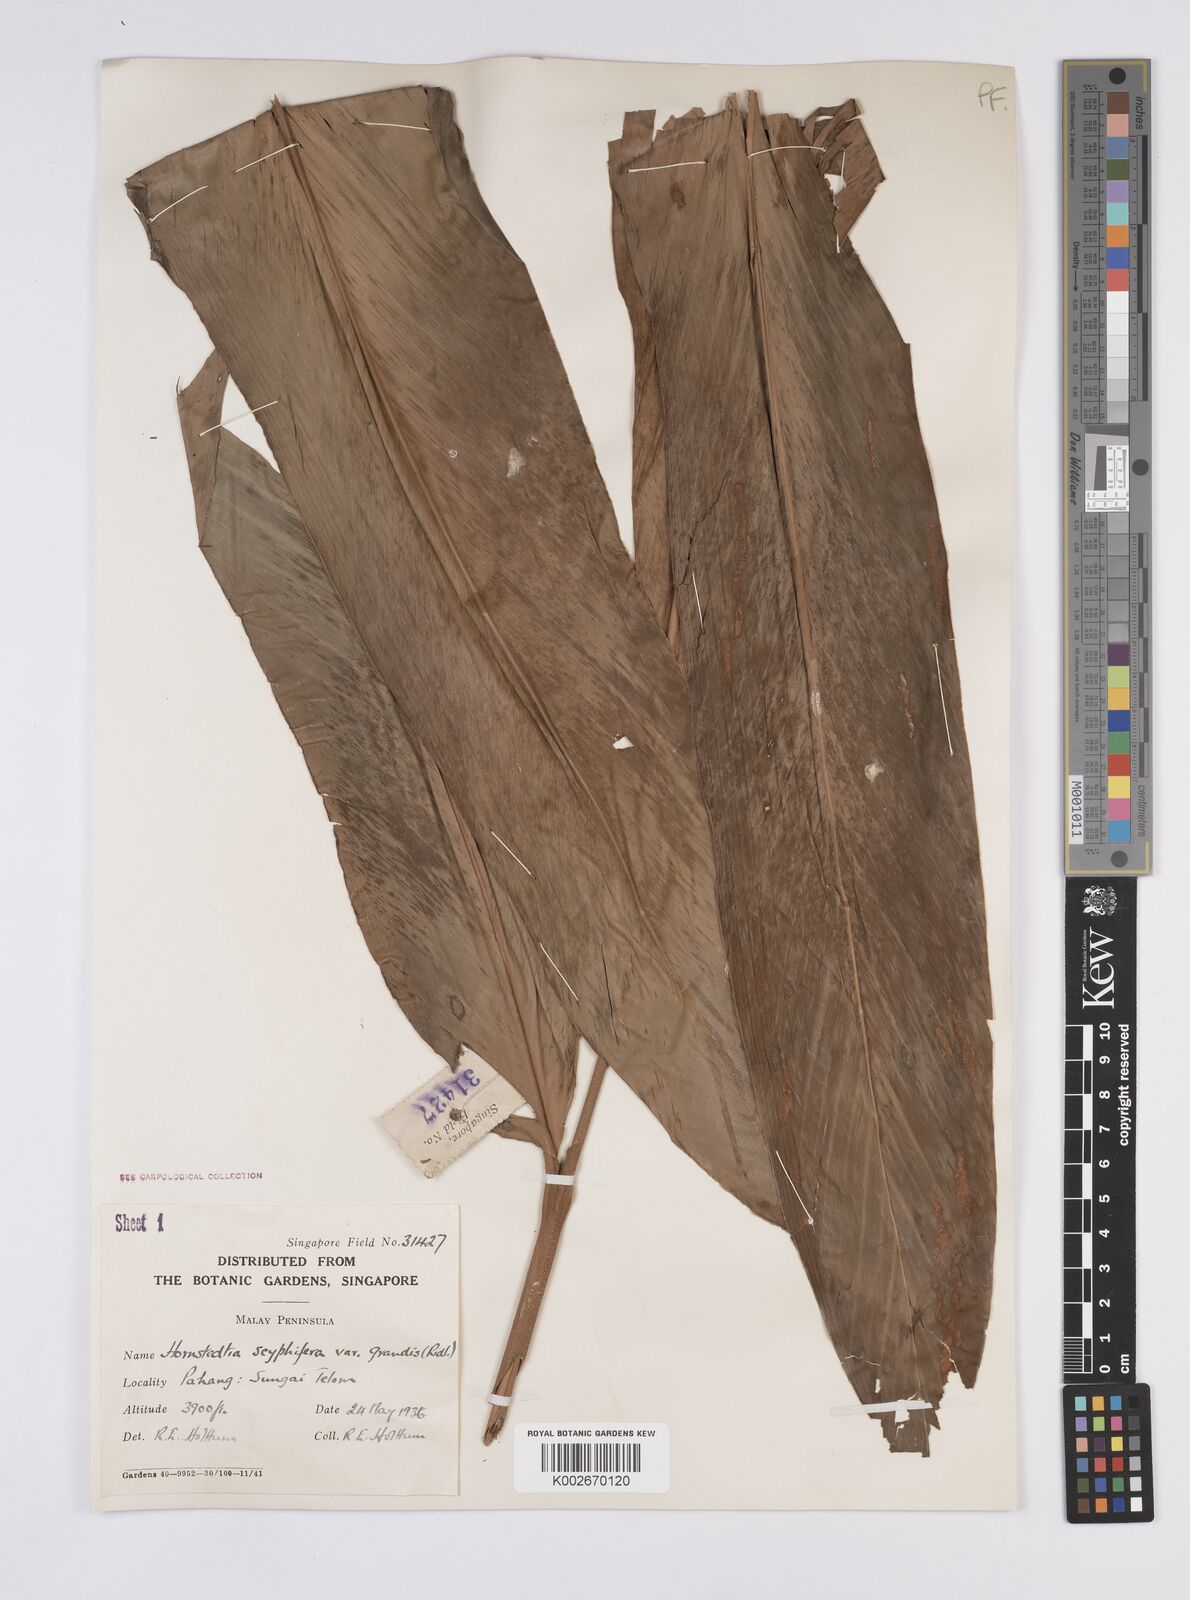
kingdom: Plantae
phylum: Tracheophyta
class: Liliopsida
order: Zingiberales
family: Zingiberaceae
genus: Hornstedtia
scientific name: Hornstedtia scyphifera
